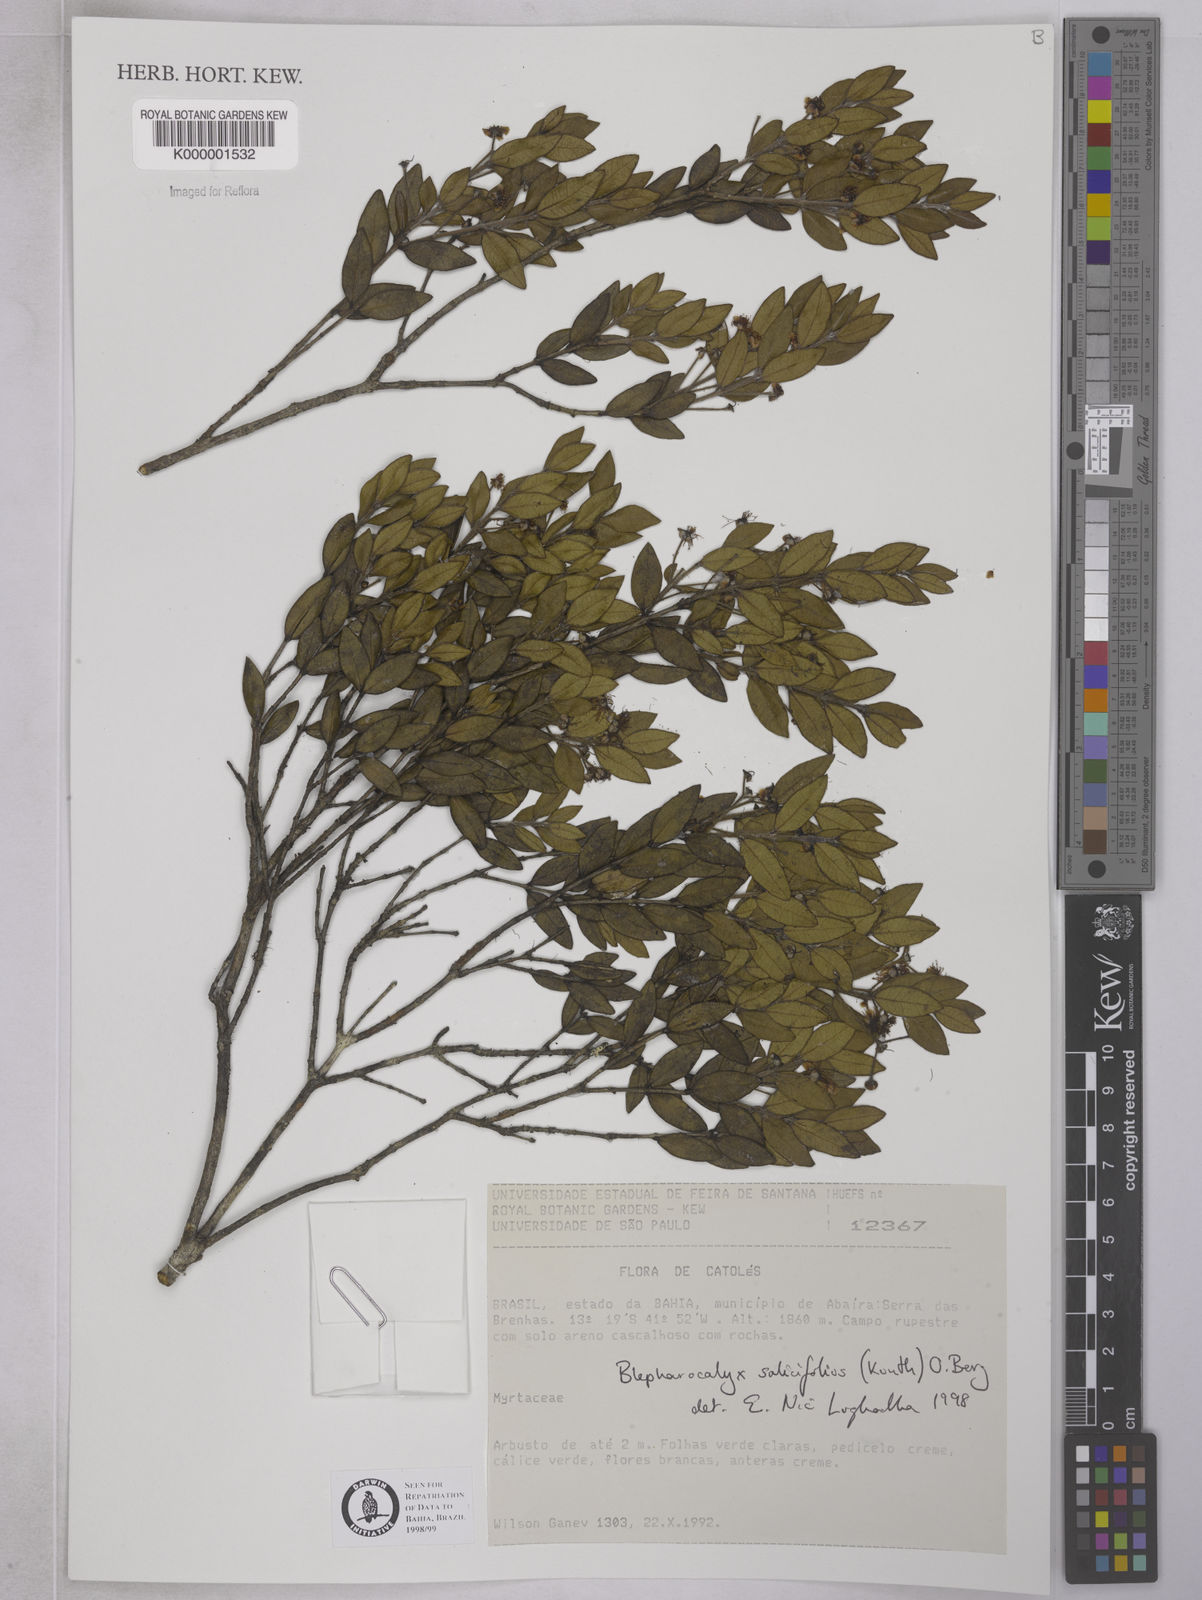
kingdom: Plantae
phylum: Tracheophyta
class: Magnoliopsida
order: Myrtales
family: Myrtaceae
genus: Blepharocalyx
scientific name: Blepharocalyx salicifolius
